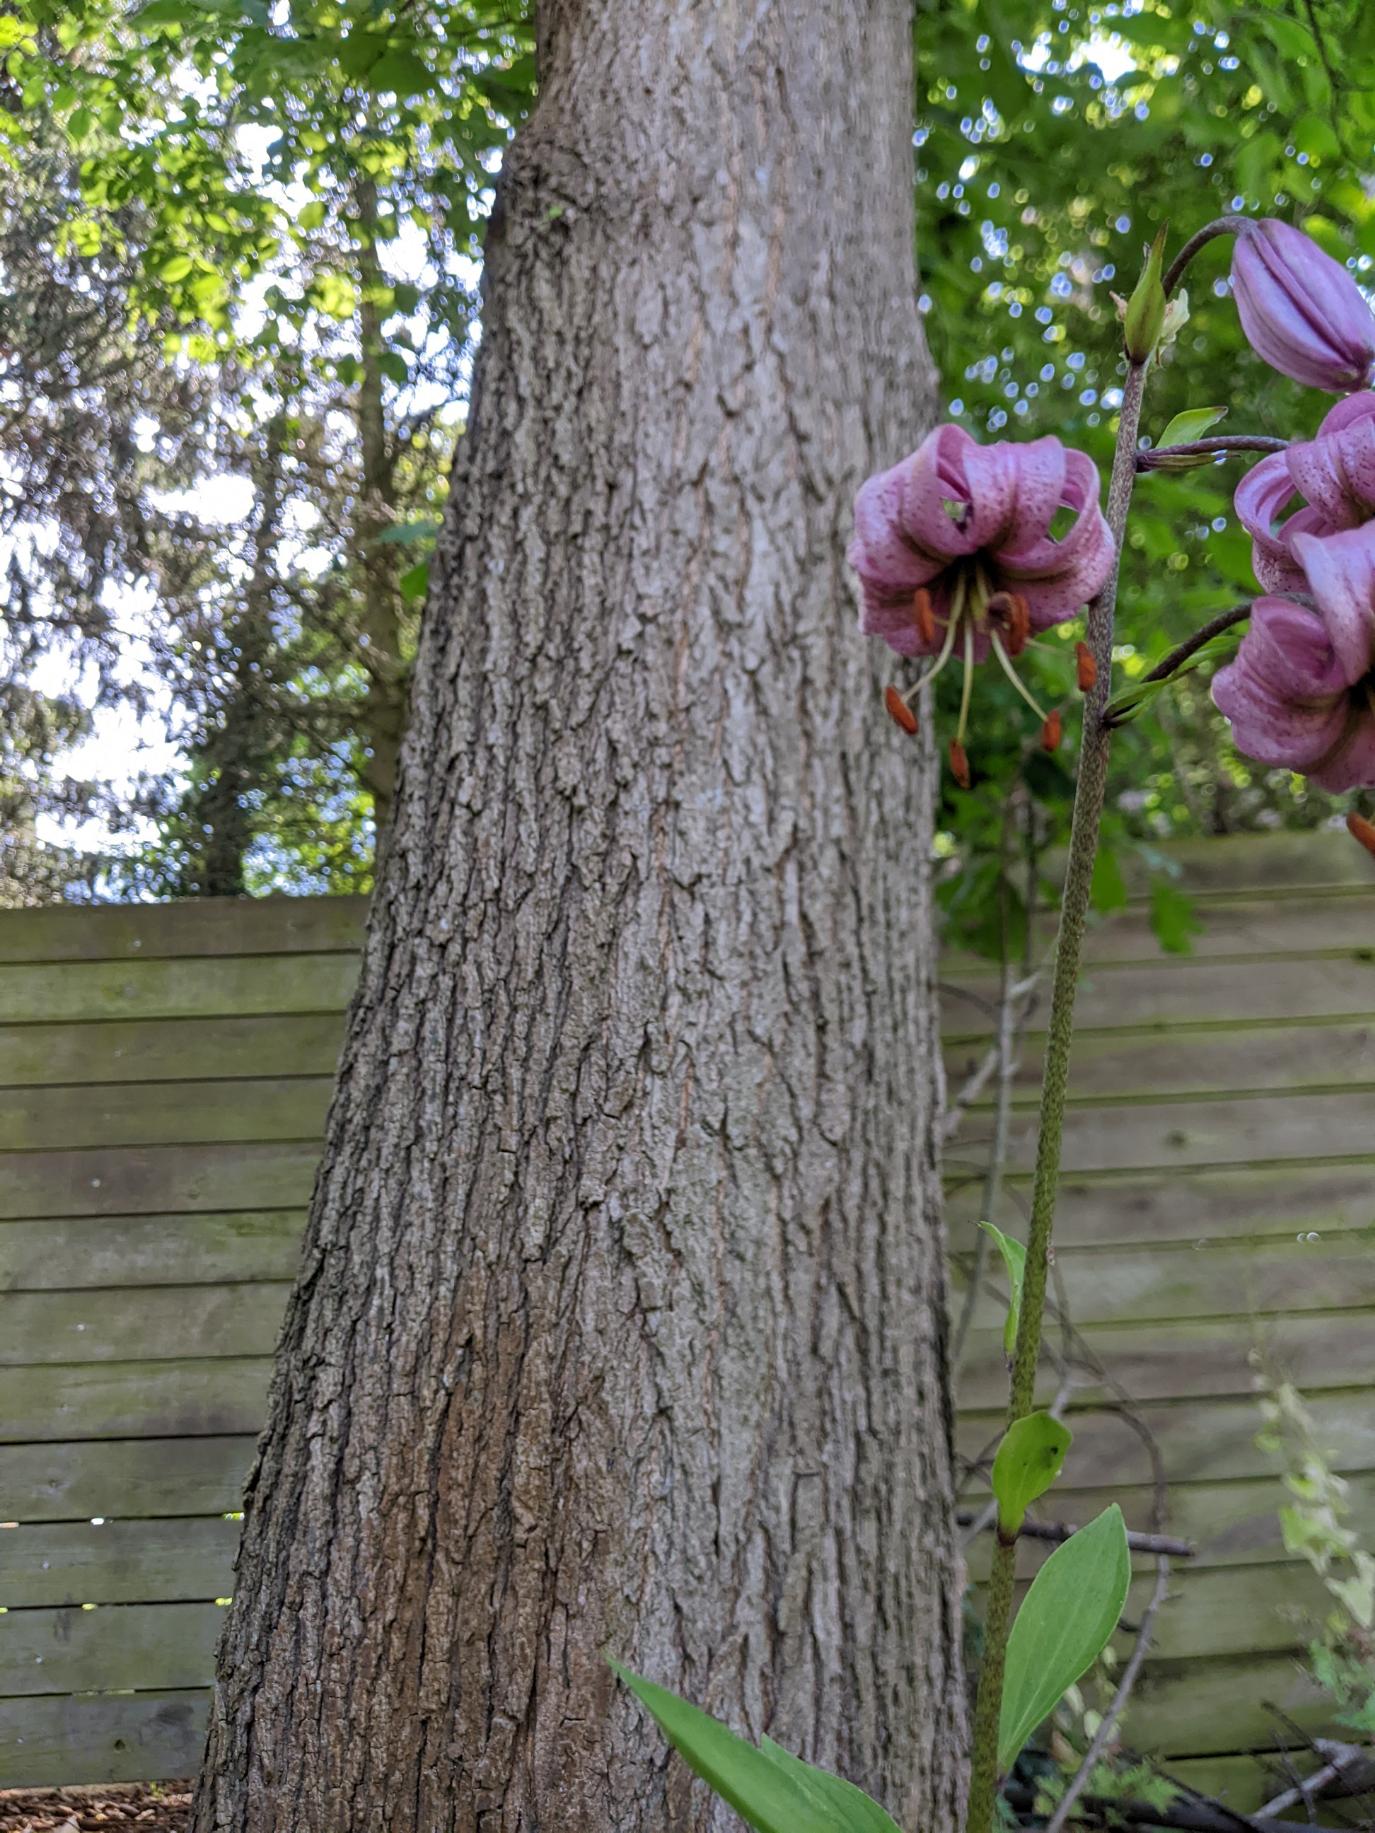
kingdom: Plantae
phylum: Tracheophyta
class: Liliopsida
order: Liliales
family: Liliaceae
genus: Lilium
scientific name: Lilium martagon
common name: Krans-lilje
